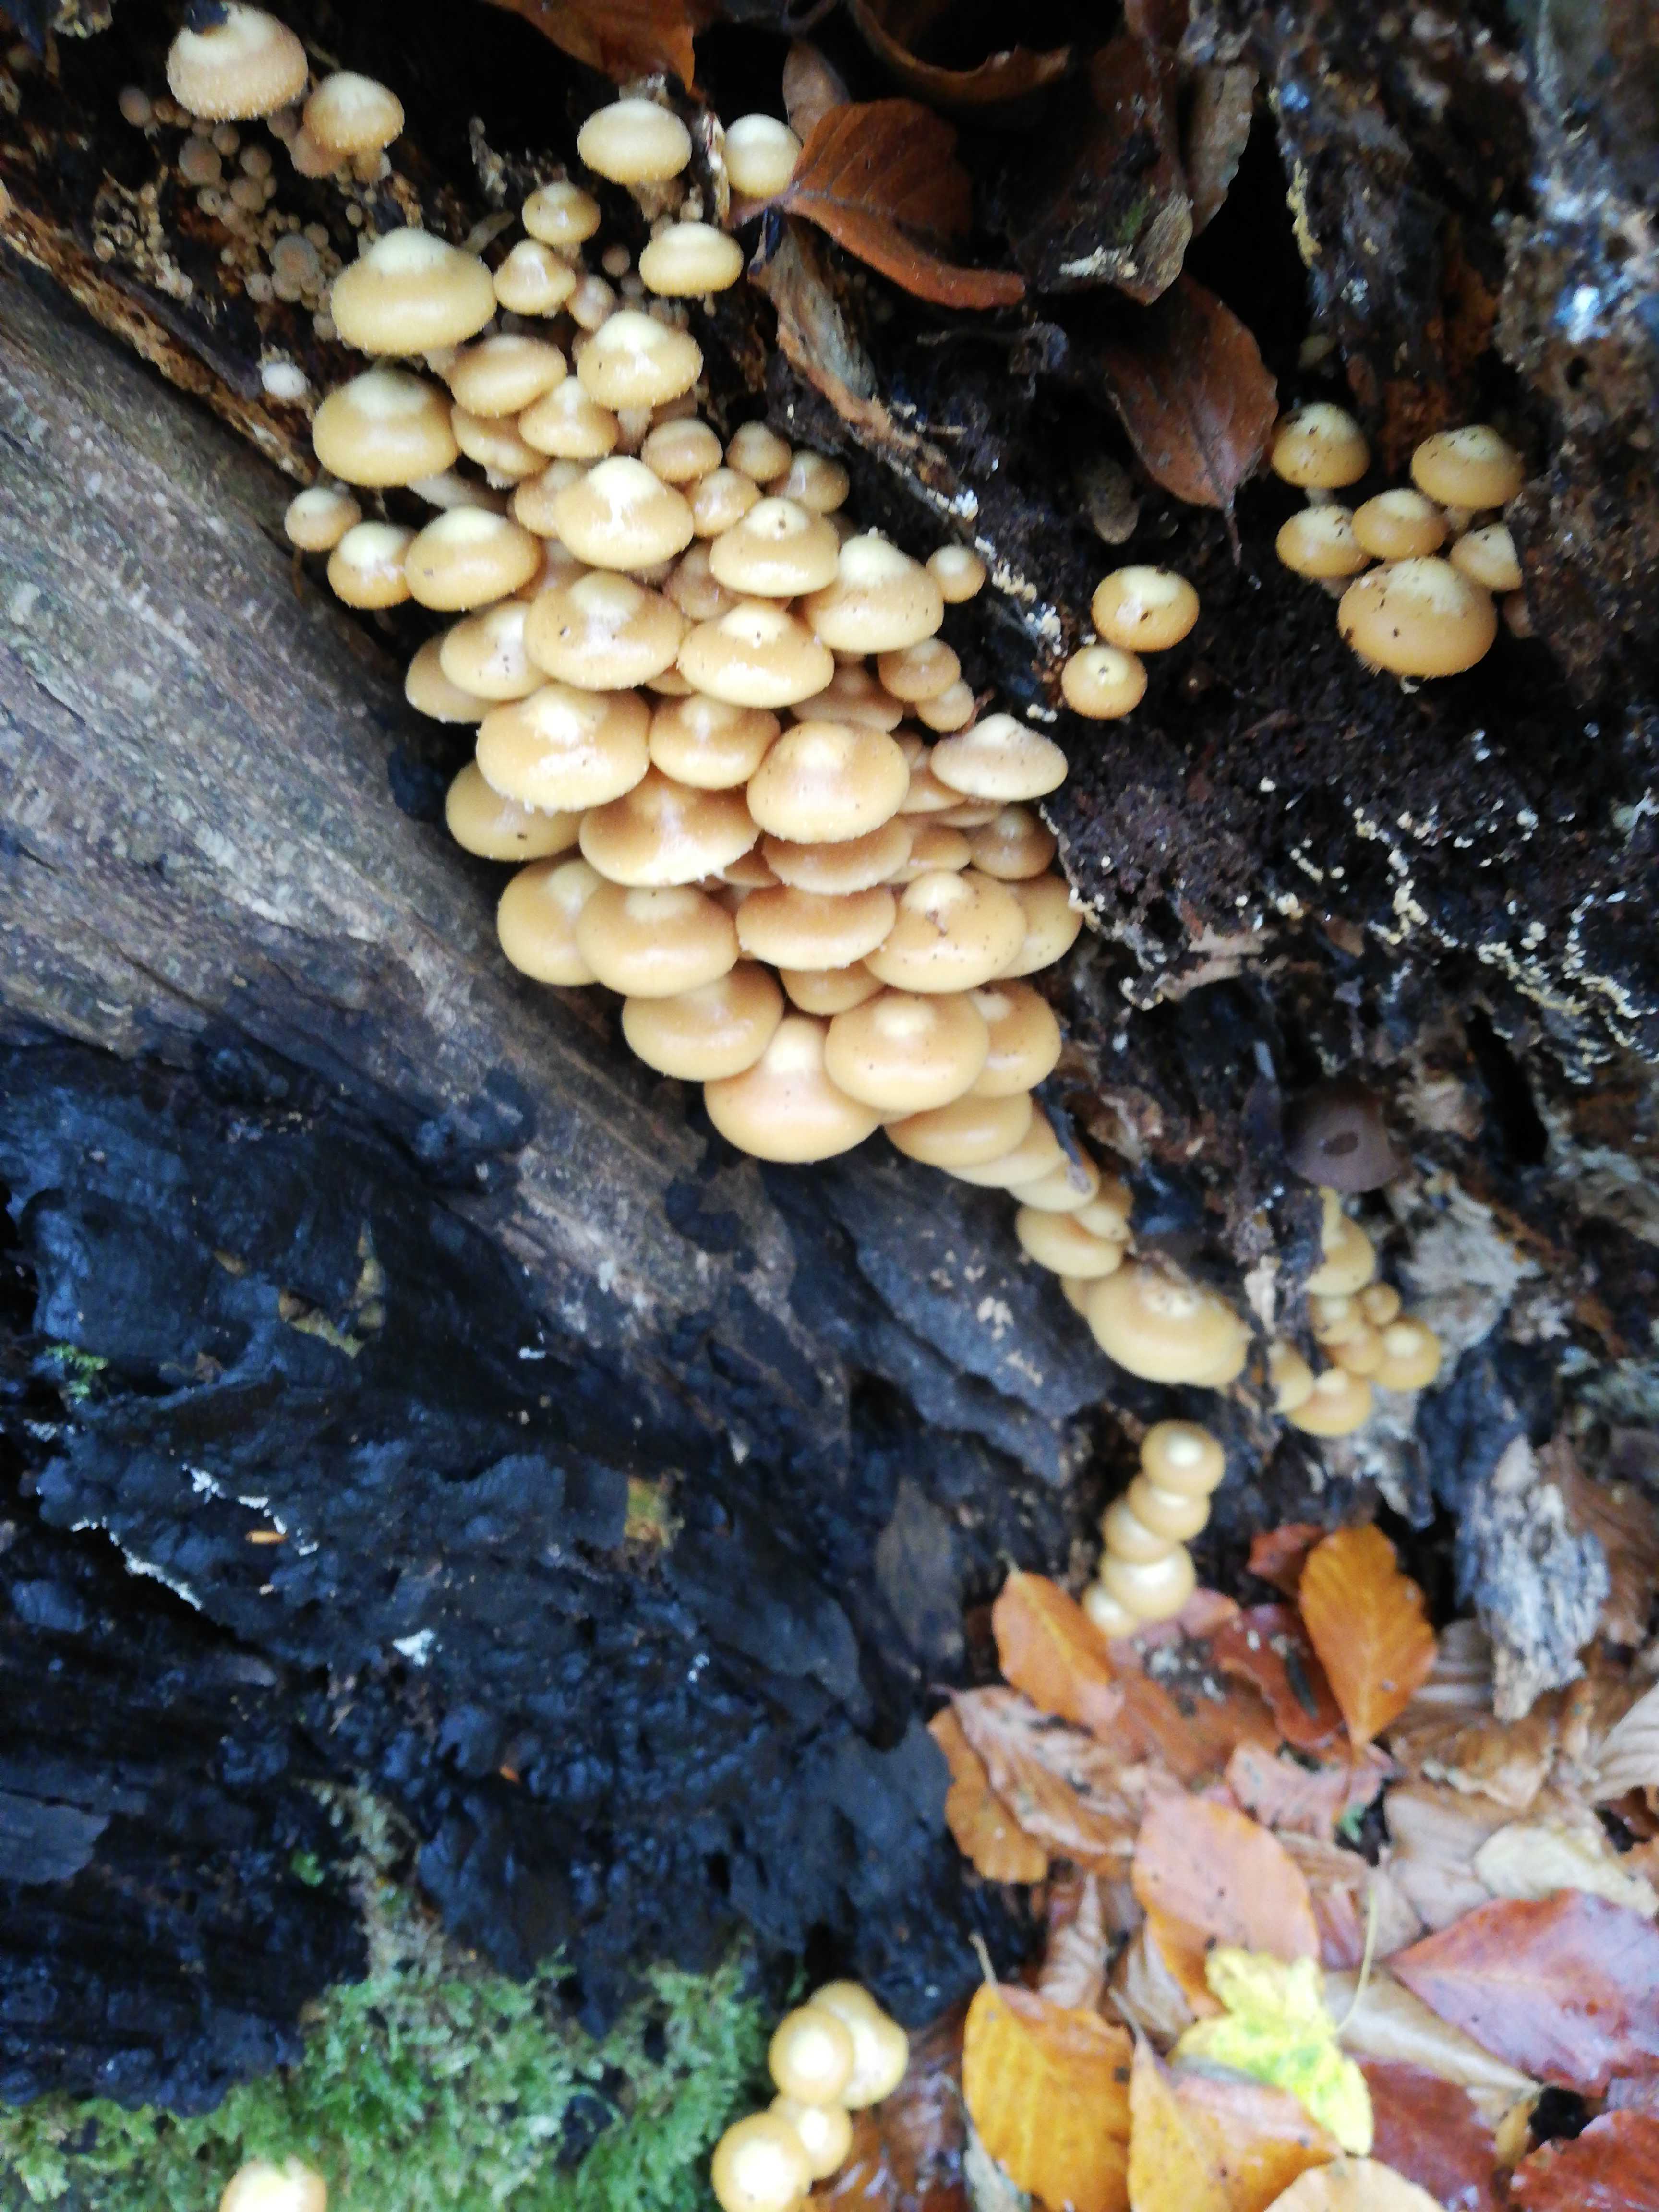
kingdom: Fungi
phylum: Basidiomycota
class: Agaricomycetes
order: Agaricales
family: Strophariaceae
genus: Kuehneromyces
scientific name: Kuehneromyces mutabilis
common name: foranderlig skælhat
